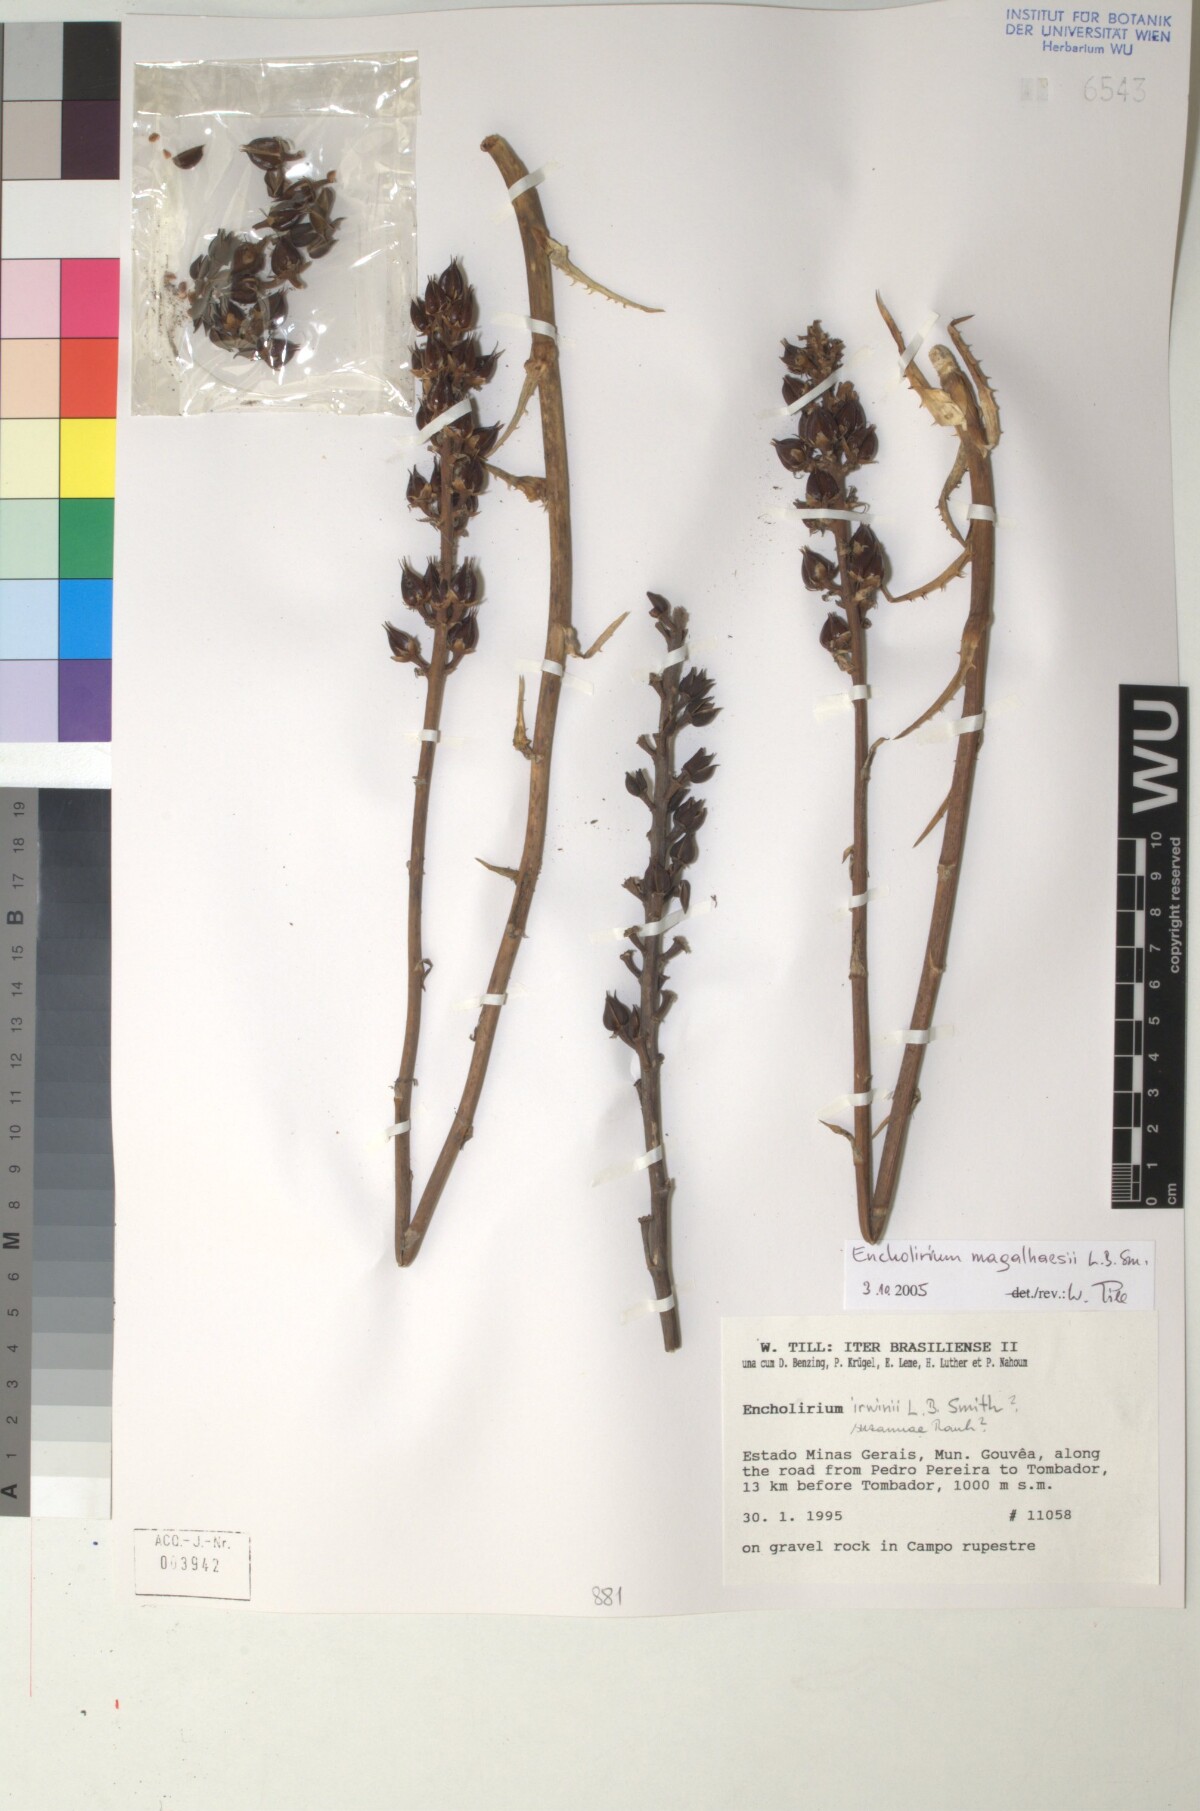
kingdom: Plantae
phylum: Tracheophyta
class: Liliopsida
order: Poales
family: Bromeliaceae
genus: Encholirium
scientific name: Encholirium magalhaesii
